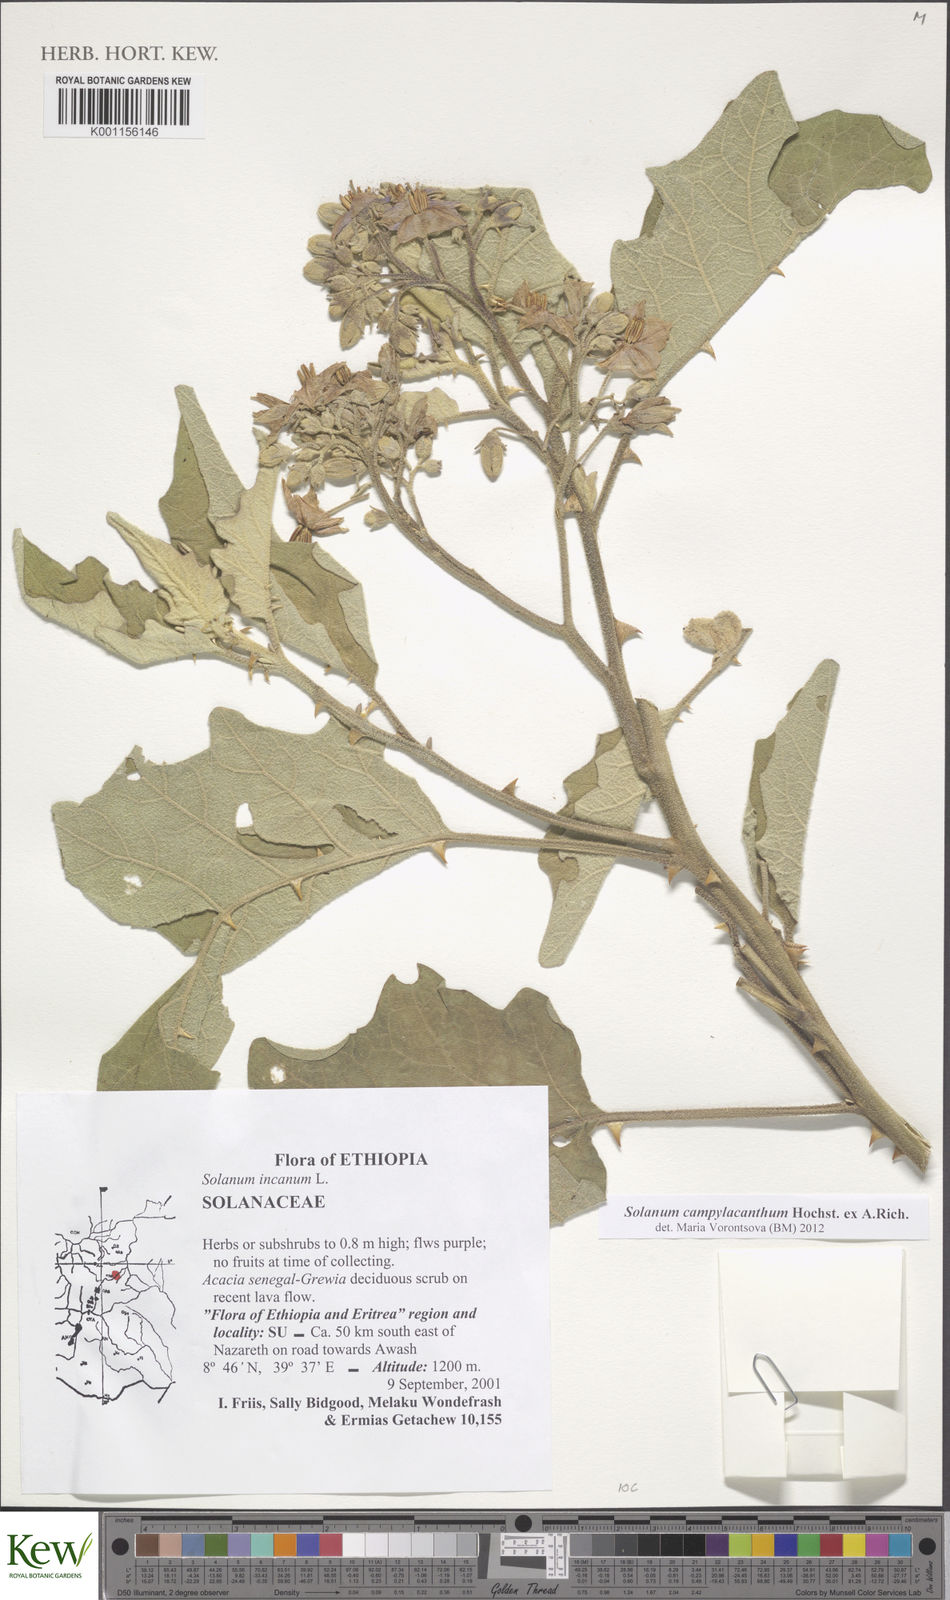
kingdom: Plantae
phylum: Tracheophyta
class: Magnoliopsida
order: Solanales
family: Solanaceae
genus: Solanum
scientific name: Solanum campylacanthum
